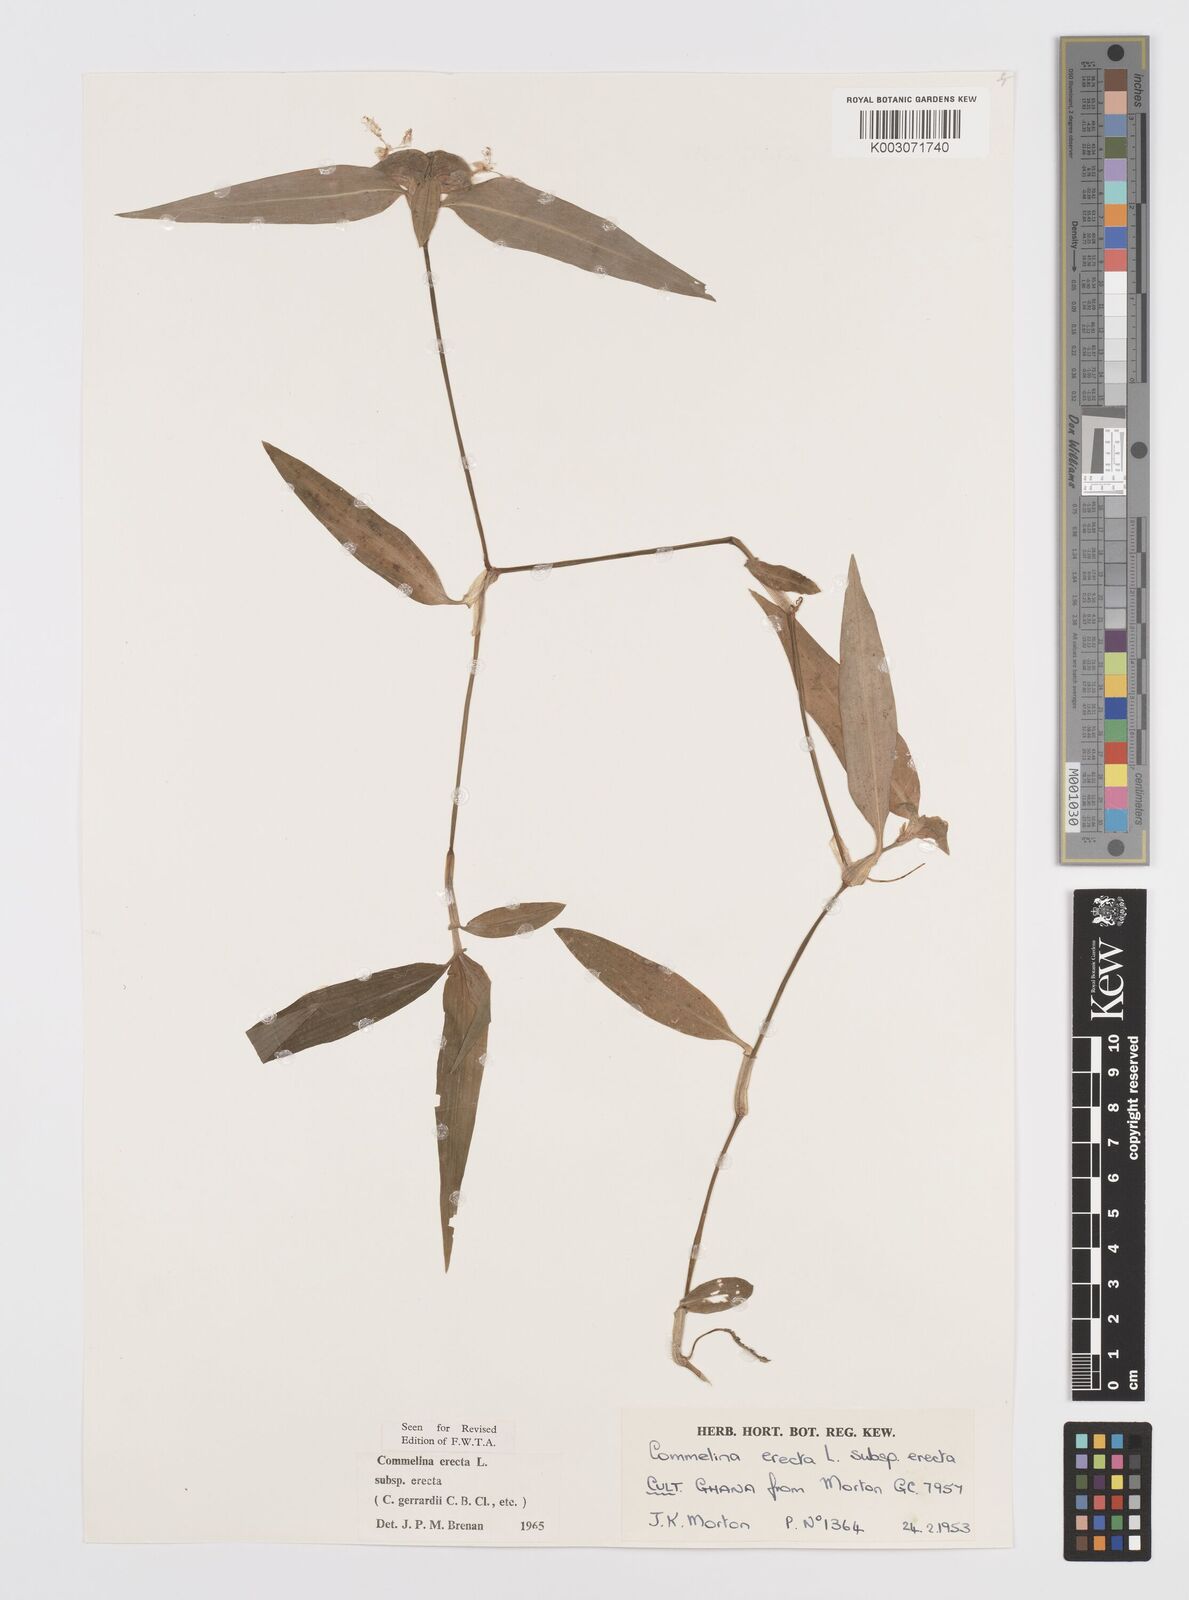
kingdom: Plantae
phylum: Tracheophyta
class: Liliopsida
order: Commelinales
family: Commelinaceae
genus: Commelina
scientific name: Commelina erecta
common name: Blousel blommetjie
